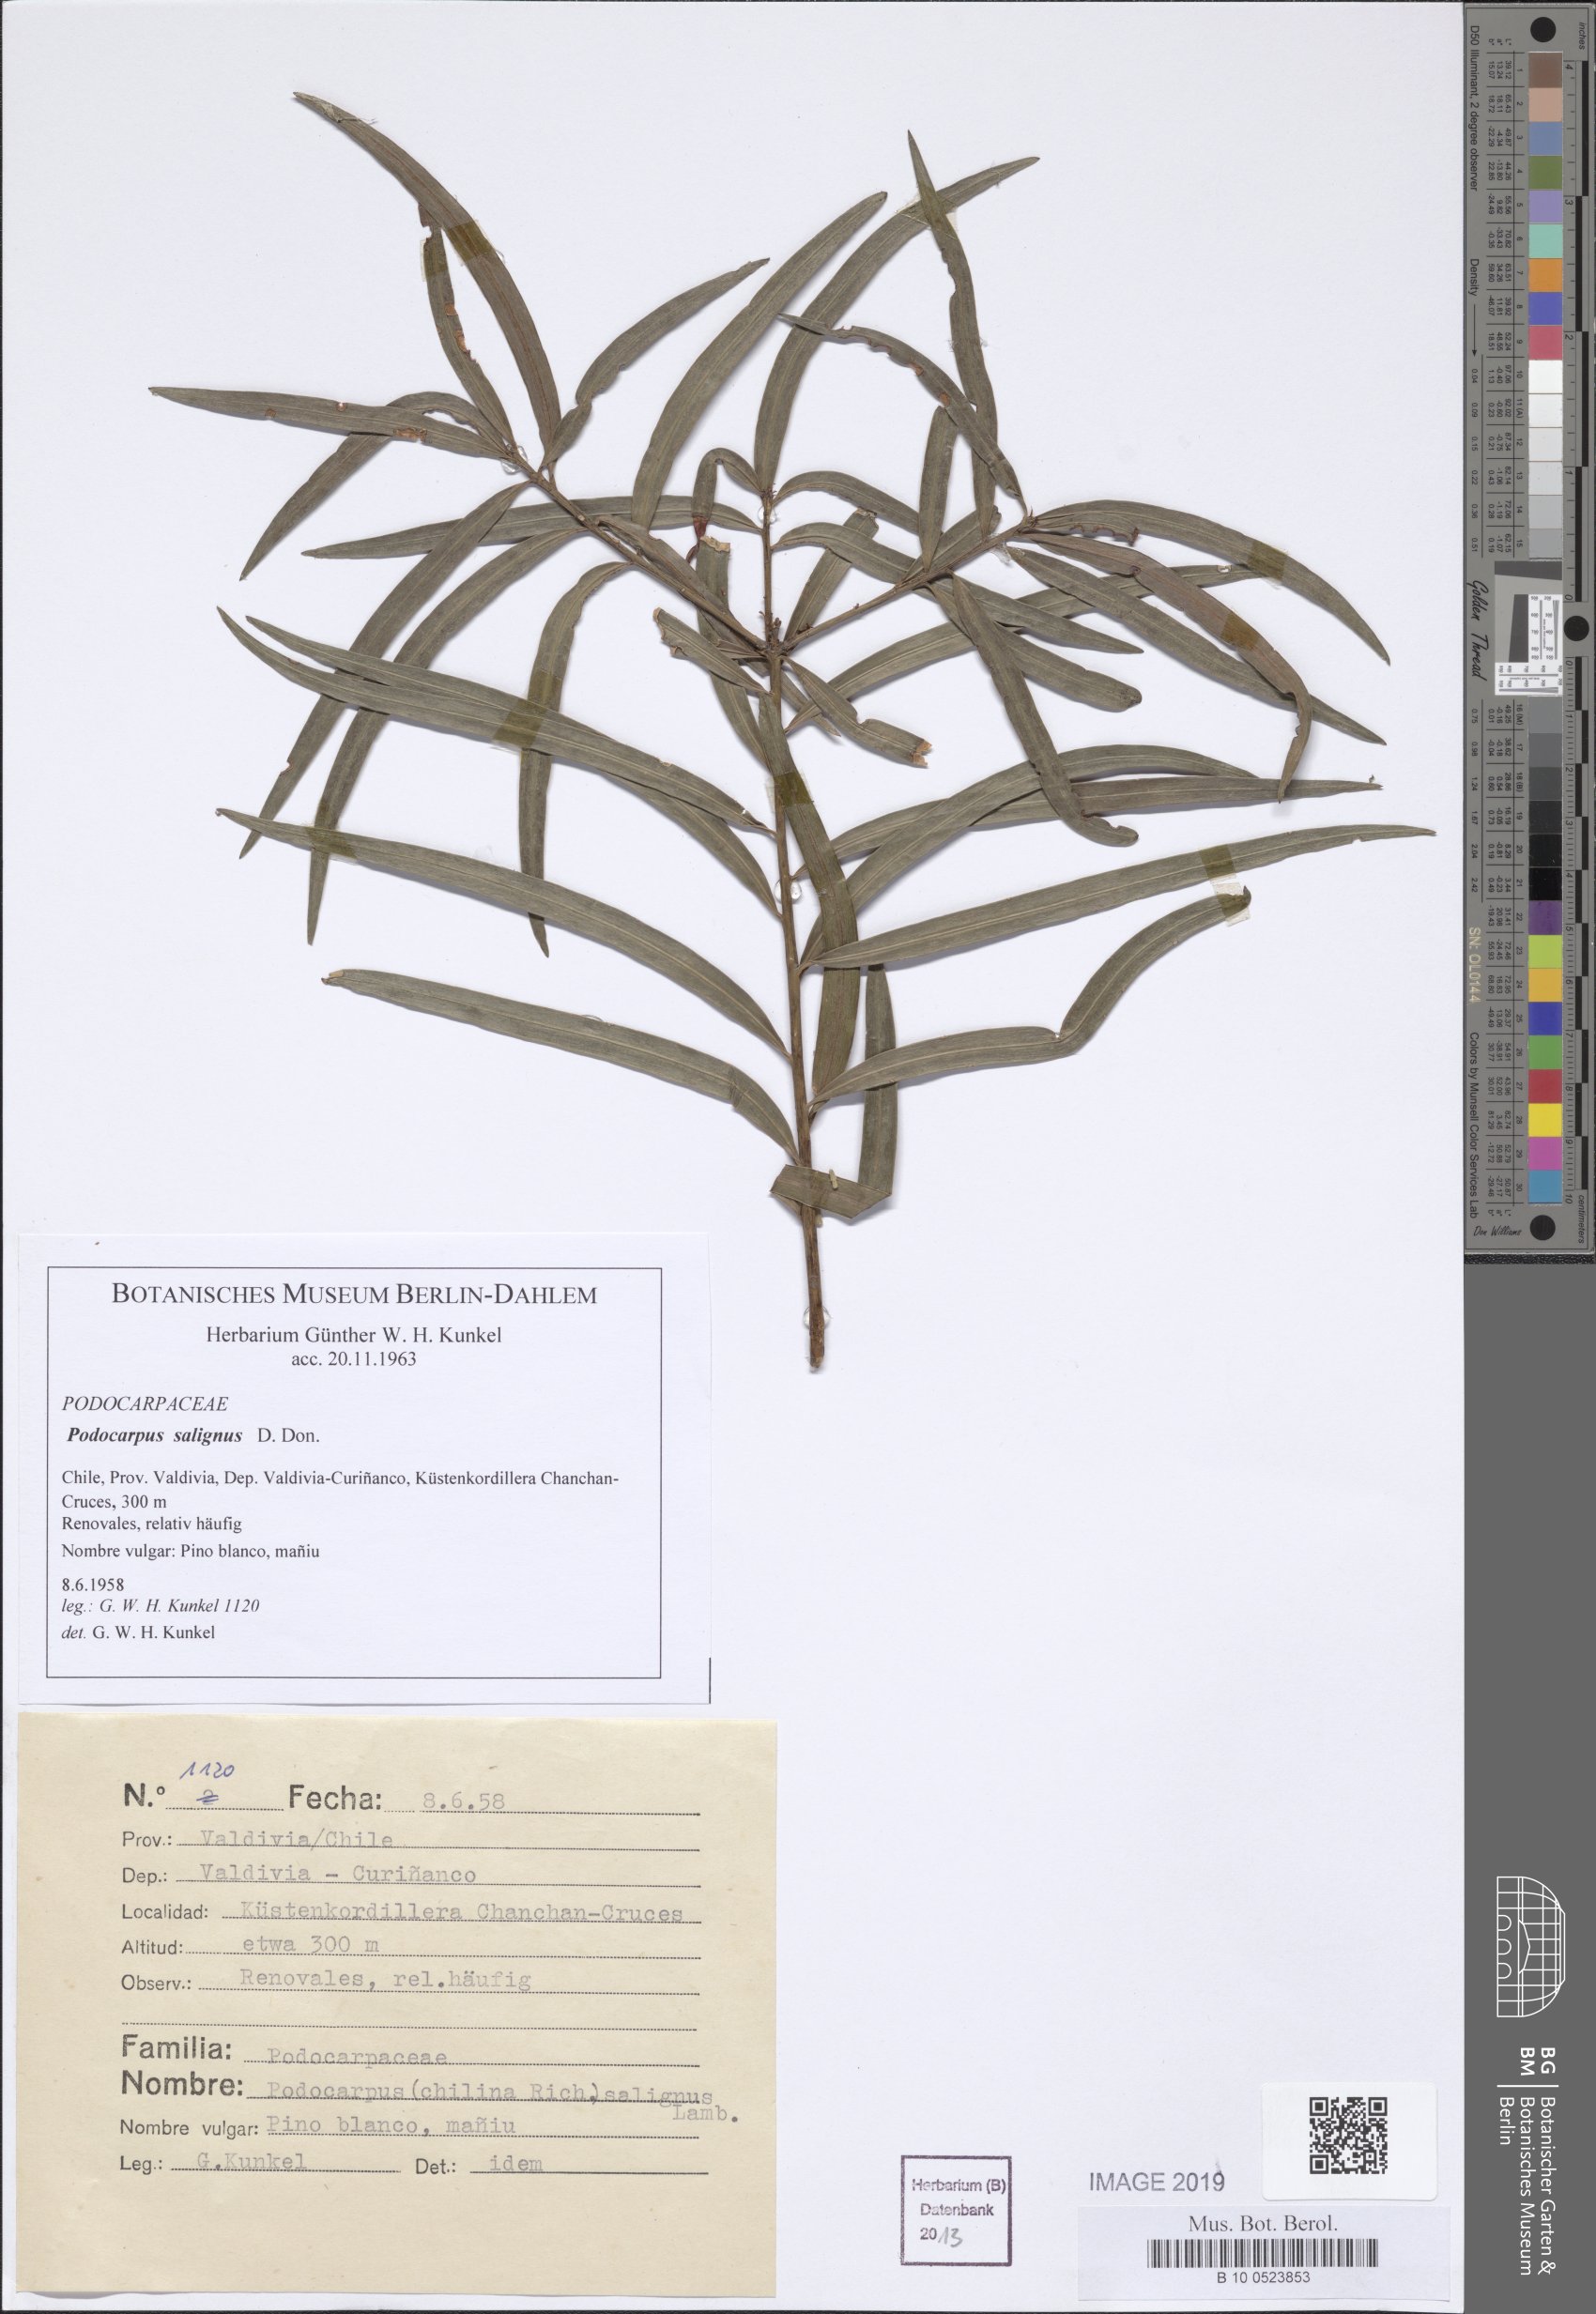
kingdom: Plantae
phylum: Tracheophyta
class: Pinopsida
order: Pinales
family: Podocarpaceae
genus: Podocarpus
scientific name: Podocarpus salignus
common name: Willow-leaf podocarp
